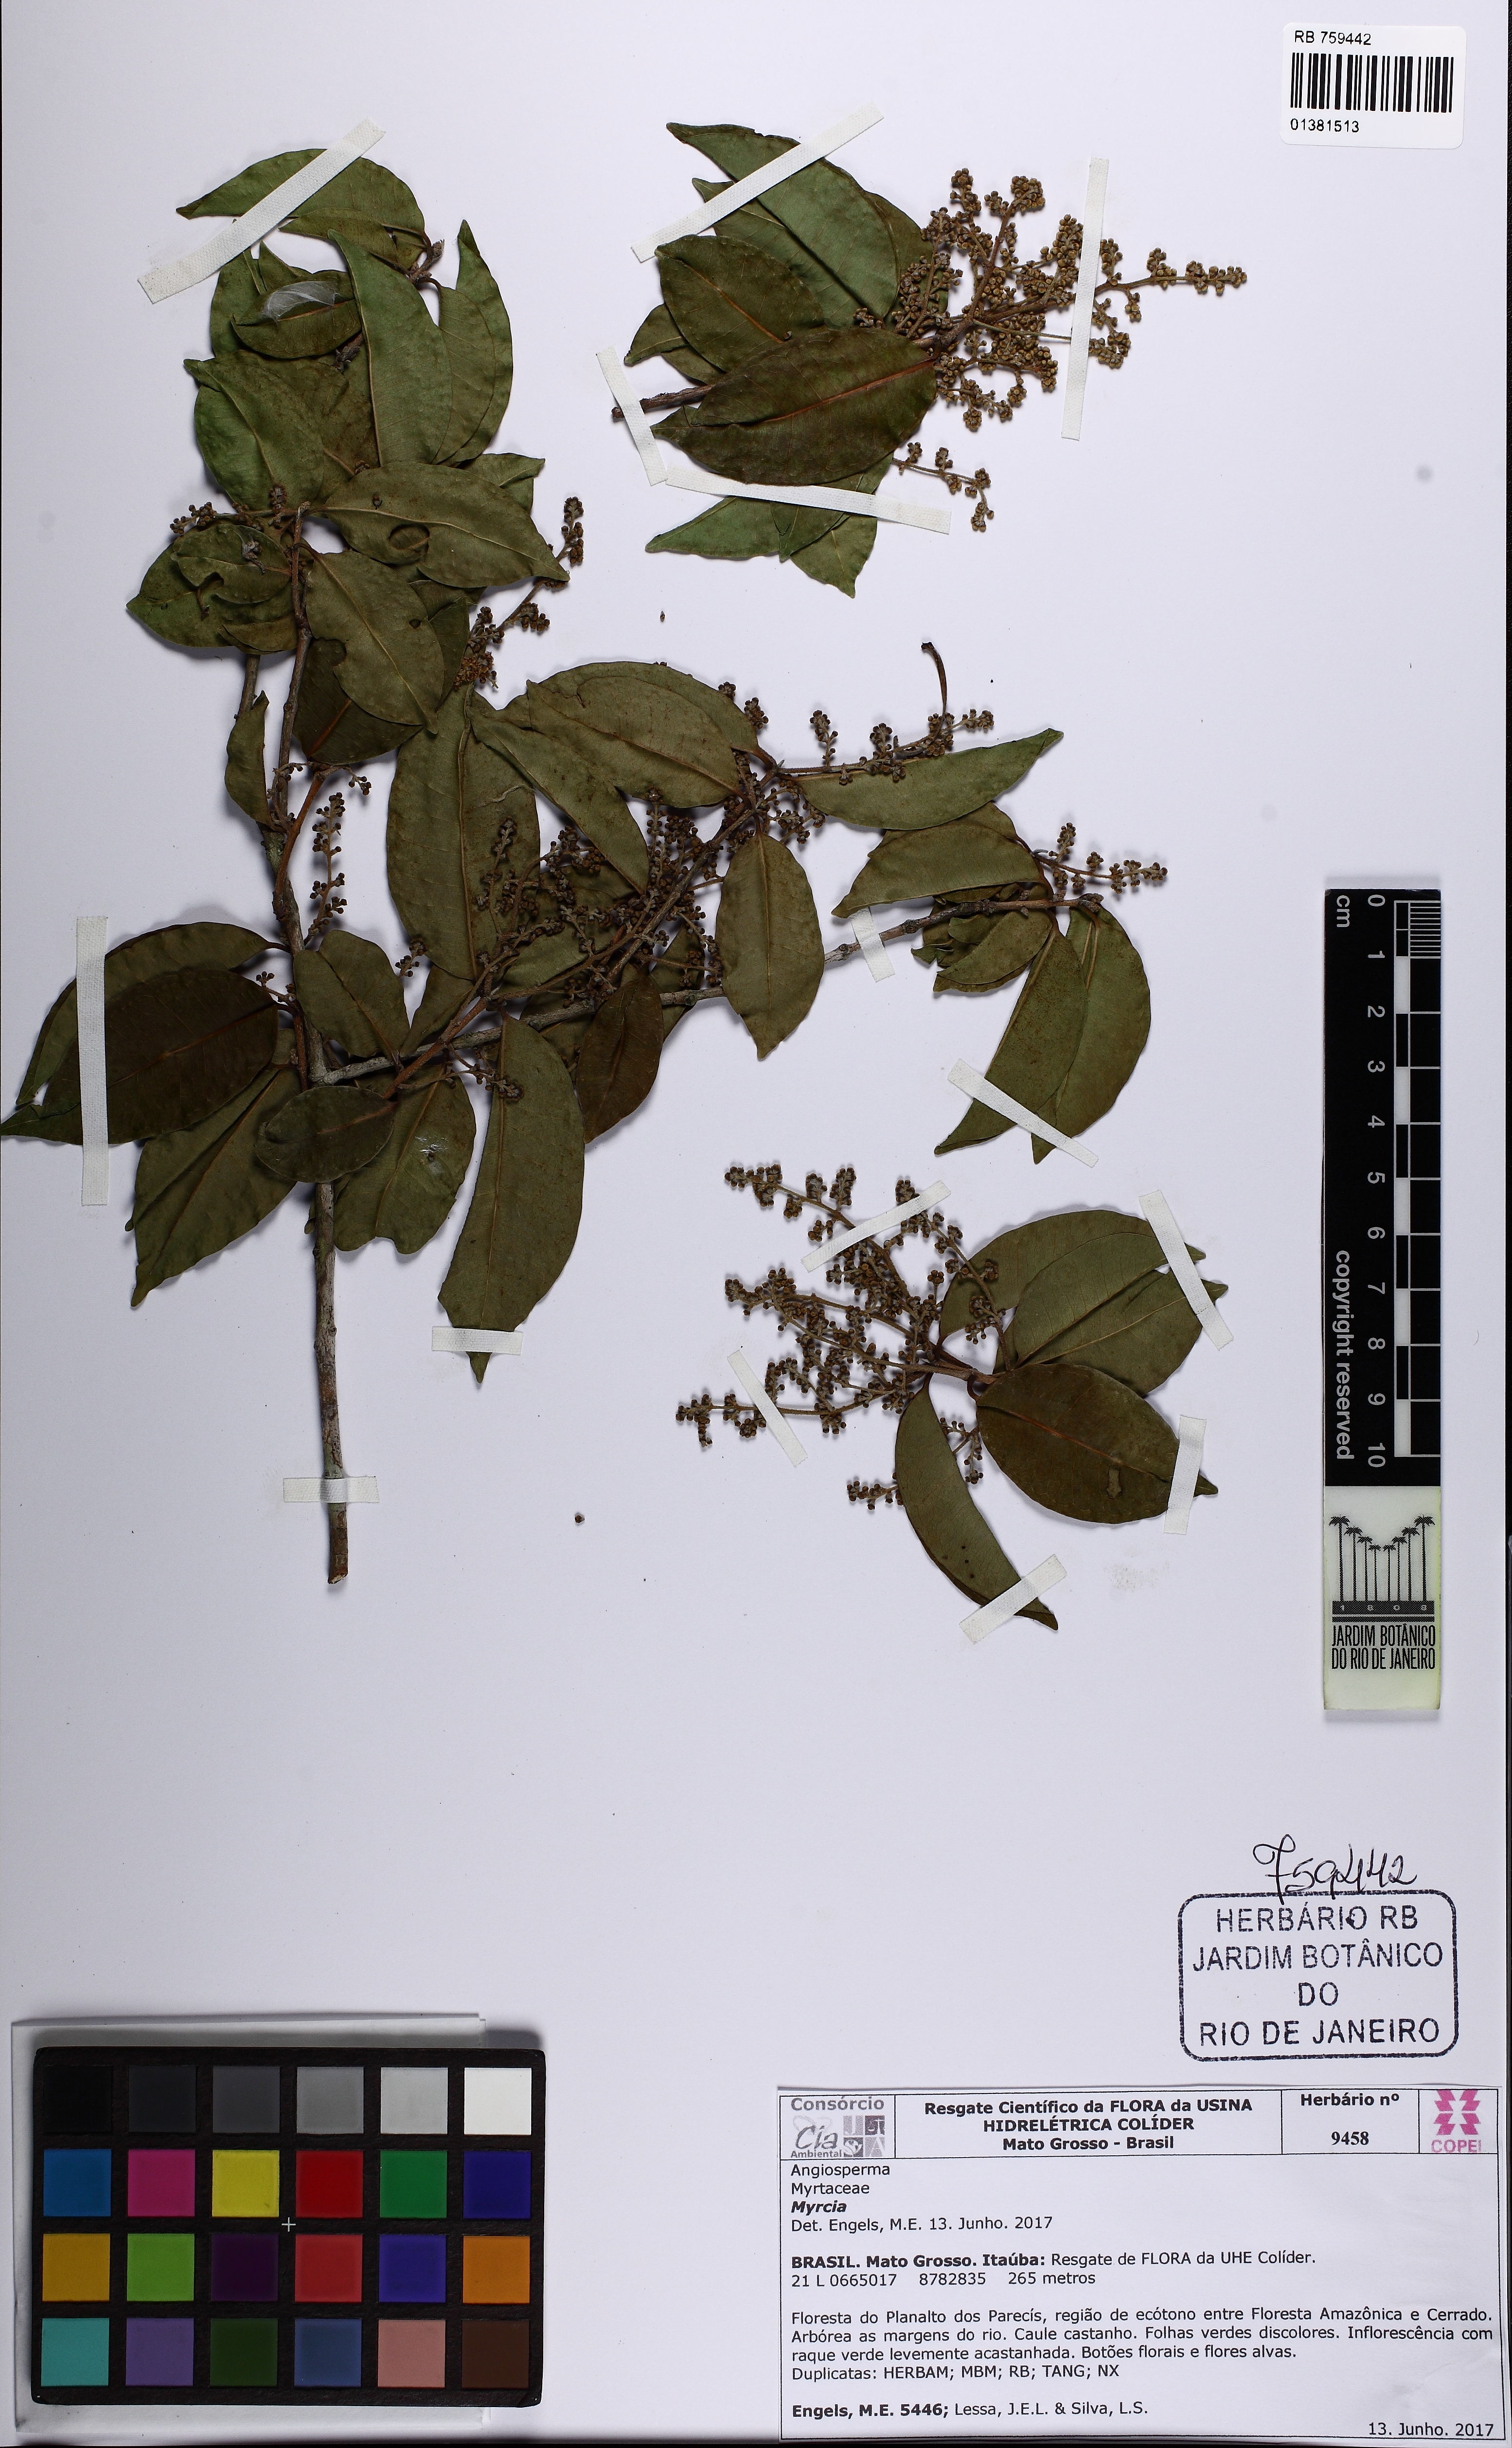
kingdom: Plantae
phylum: Tracheophyta
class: Magnoliopsida
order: Myrtales
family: Myrtaceae
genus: Myrcia
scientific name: Myrcia pyrifolia
